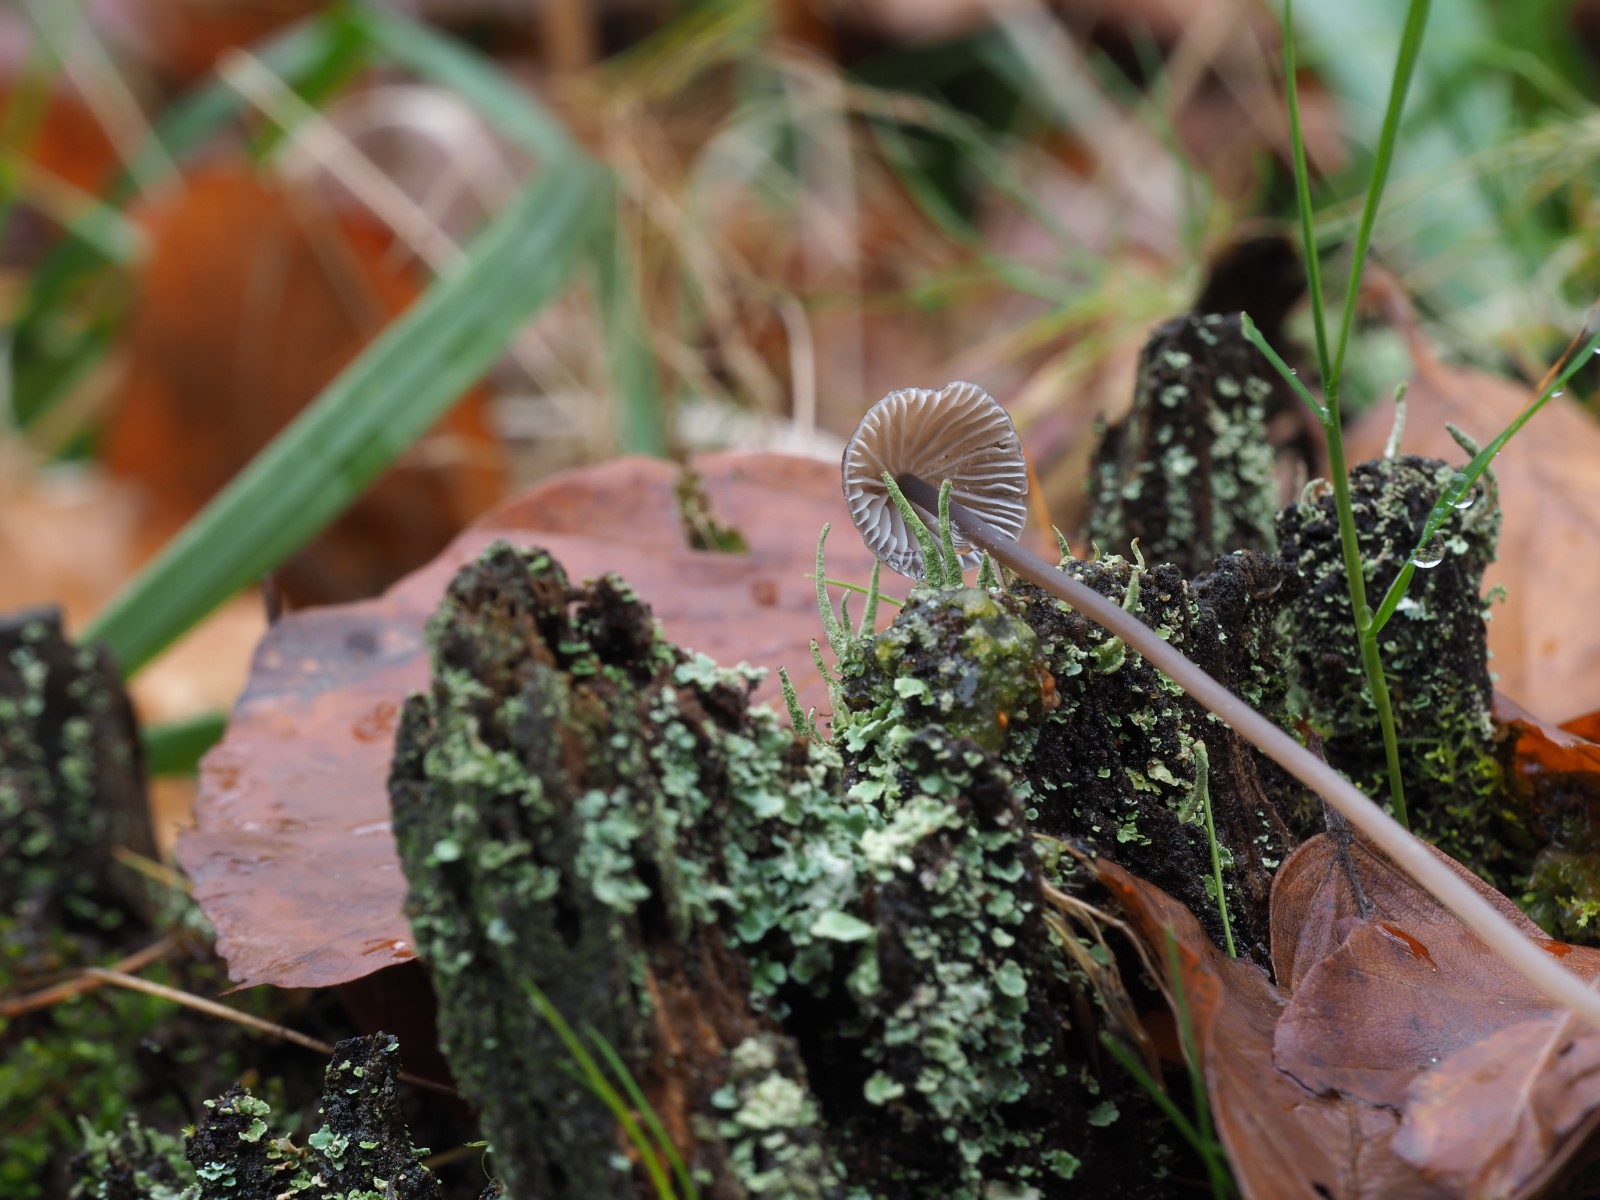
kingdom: Fungi
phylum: Basidiomycota
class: Agaricomycetes
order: Agaricales
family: Mycenaceae
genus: Mycena
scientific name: Mycena silvae-nigrae
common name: tidlig huesvamp
